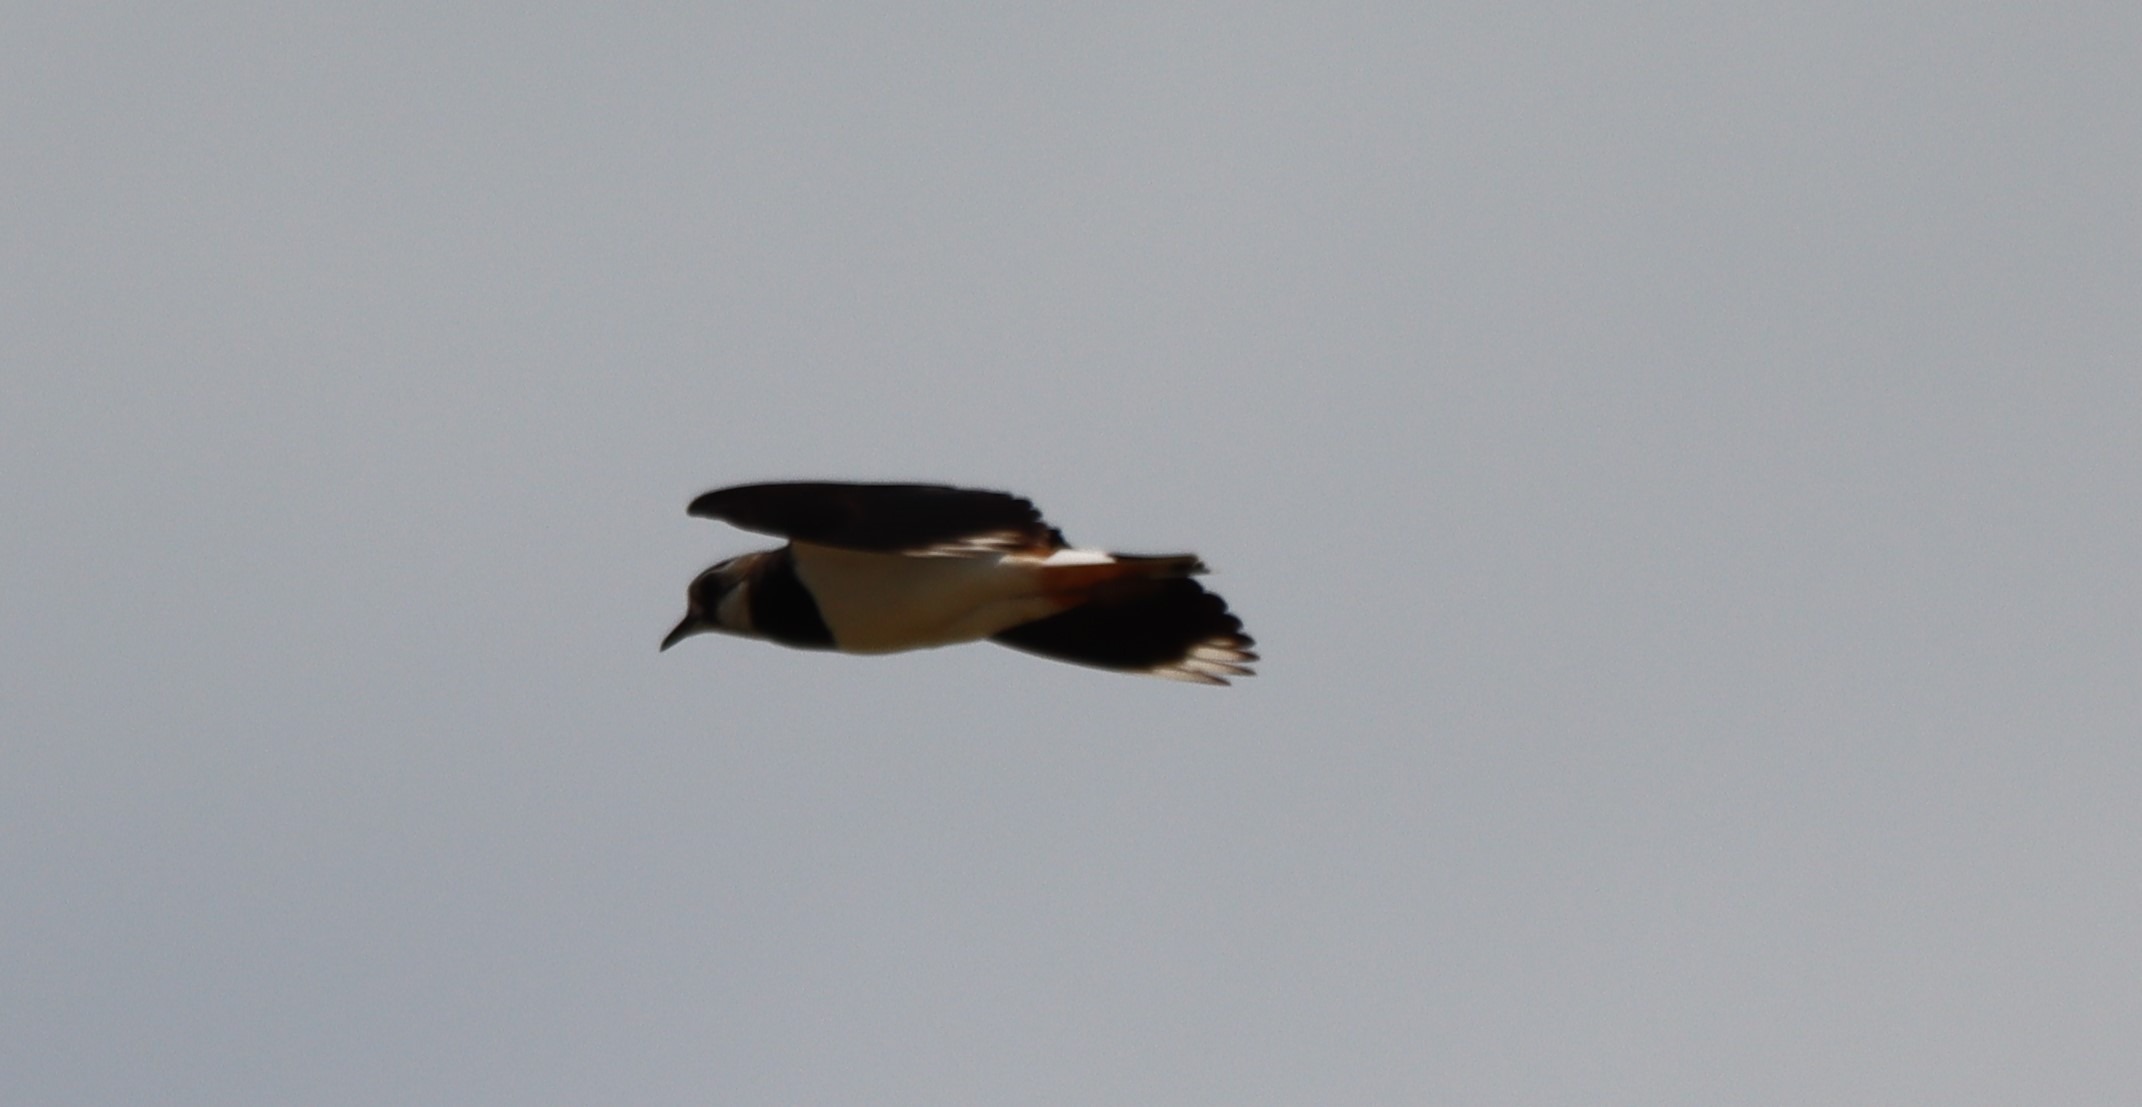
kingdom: Animalia
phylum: Chordata
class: Aves
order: Charadriiformes
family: Charadriidae
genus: Vanellus
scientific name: Vanellus vanellus
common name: Vibe
